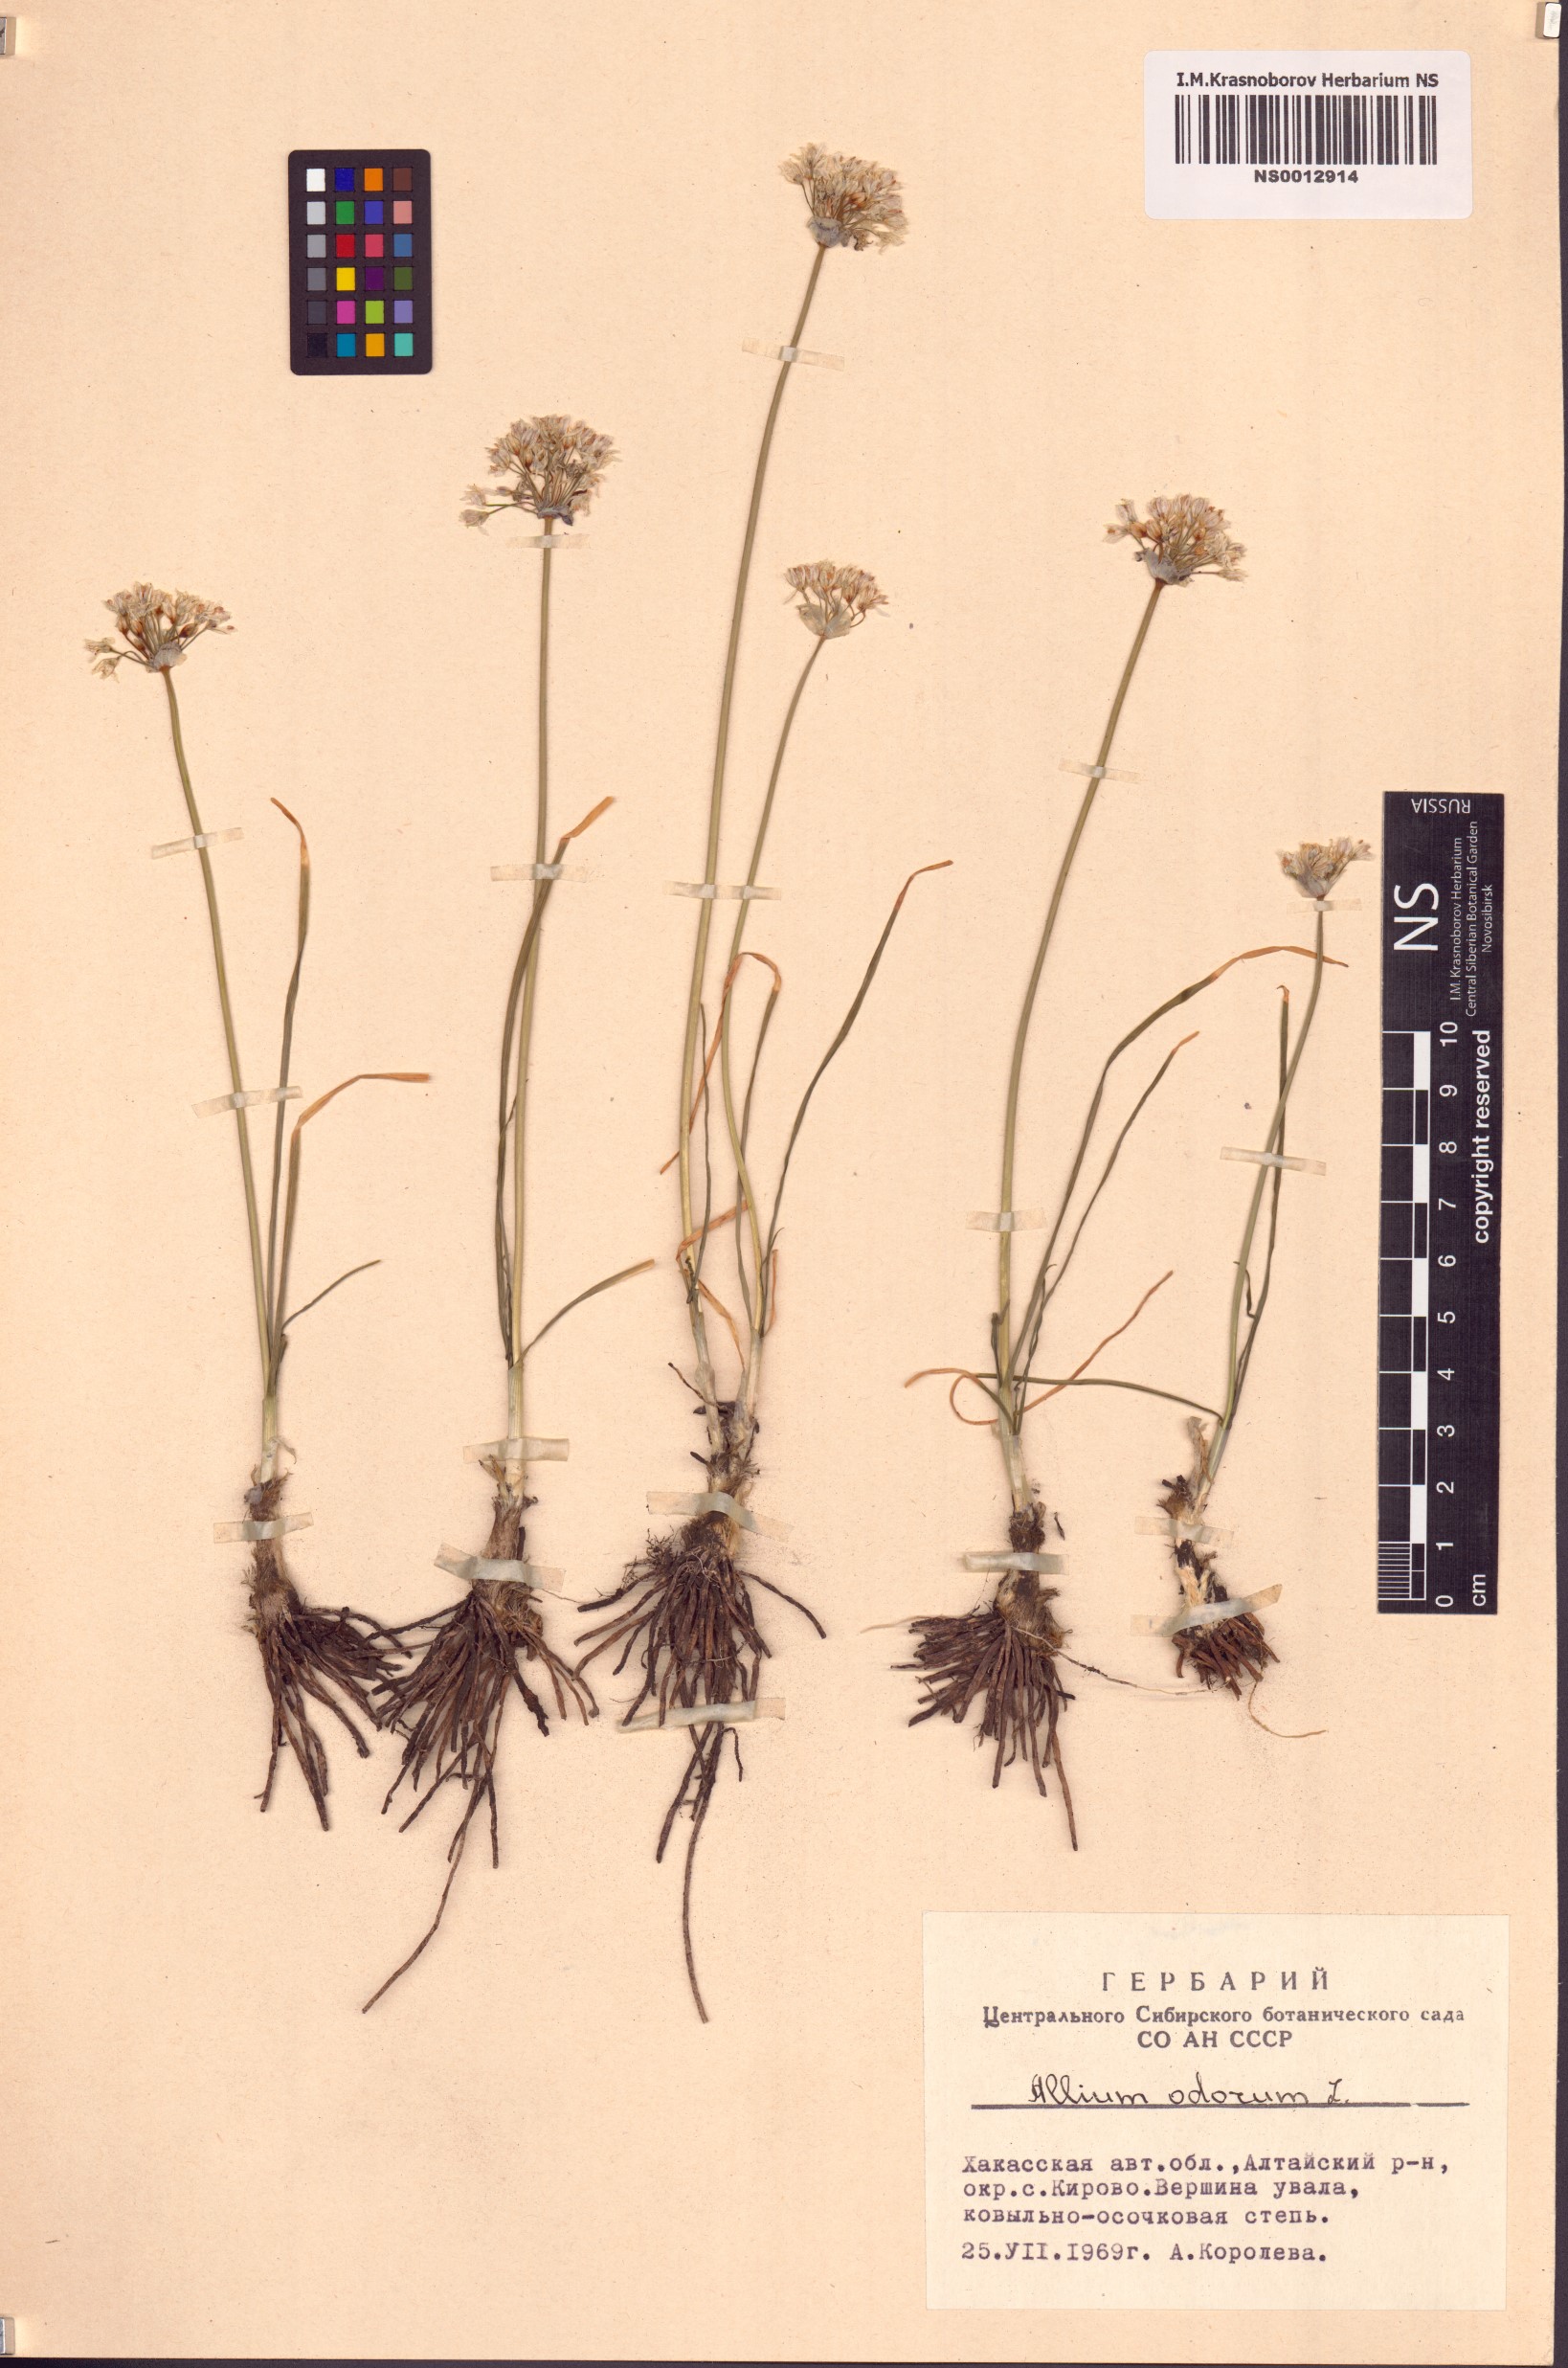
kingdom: Plantae
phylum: Tracheophyta
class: Liliopsida
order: Asparagales
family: Amaryllidaceae
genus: Allium
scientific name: Allium ramosum
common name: Fragrant garlic
